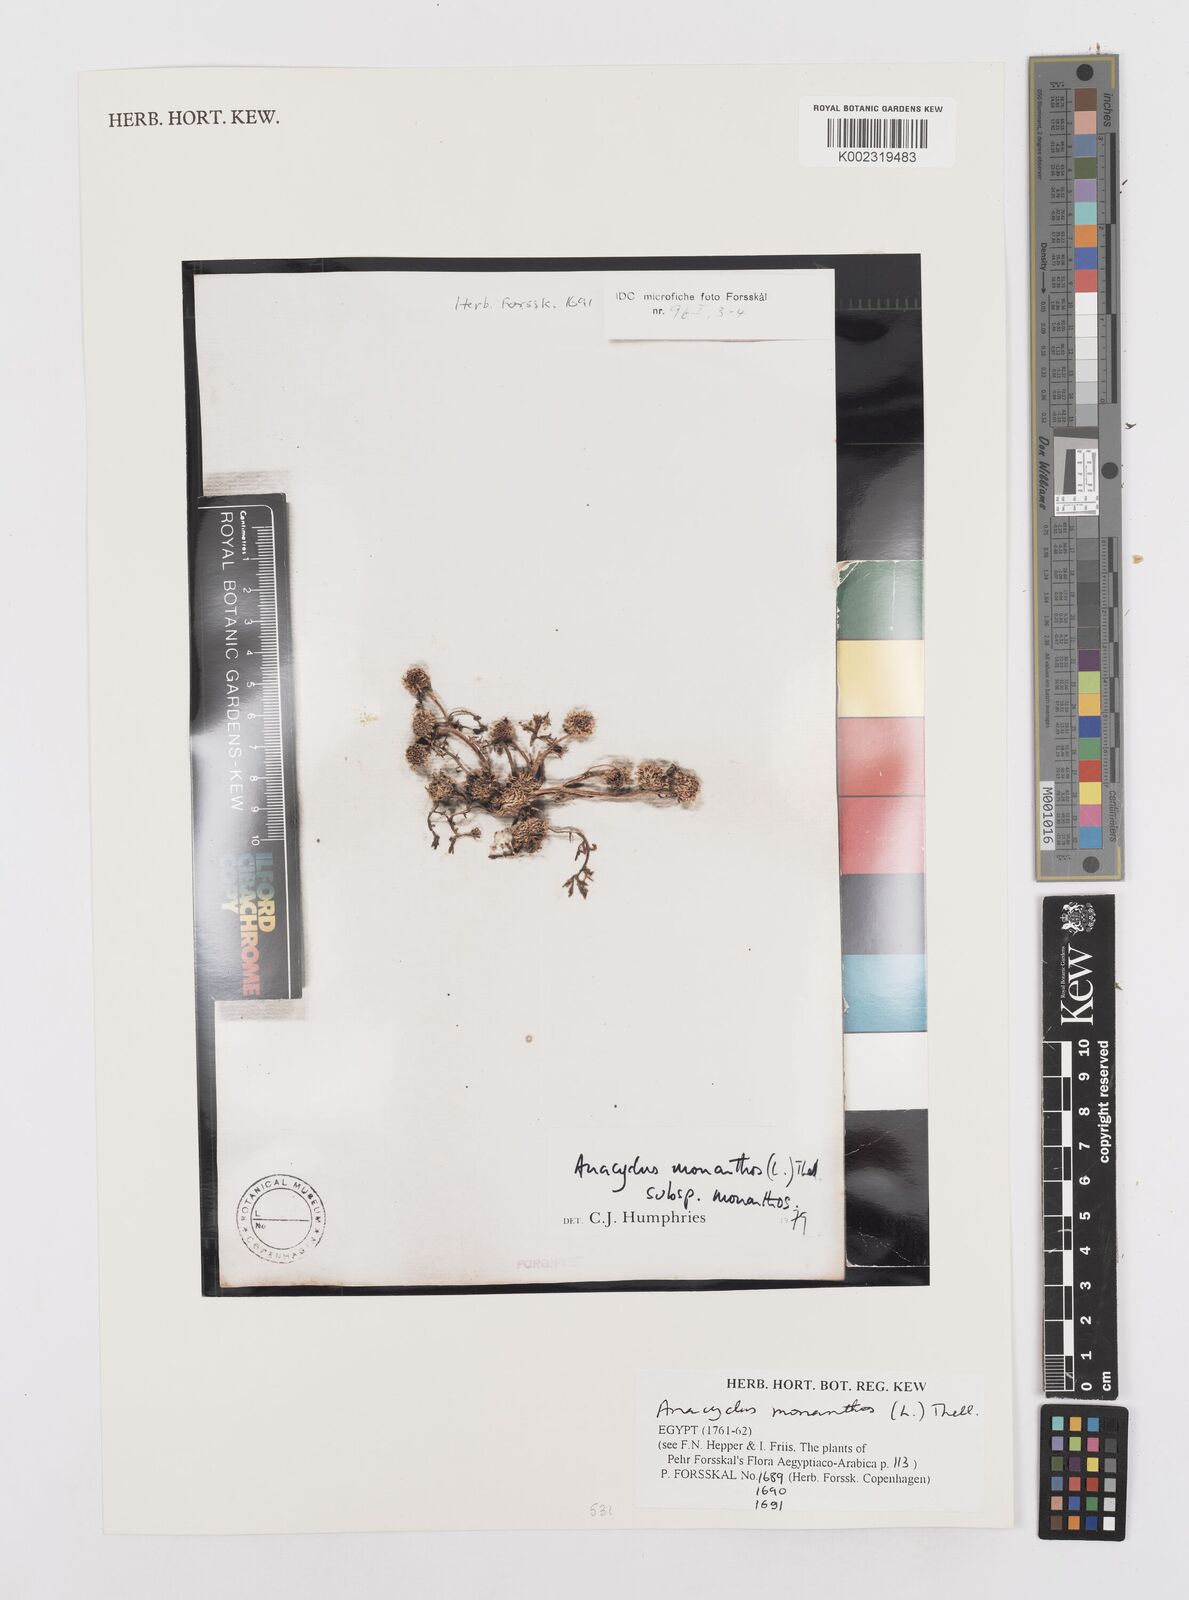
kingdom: Plantae
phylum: Tracheophyta
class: Magnoliopsida
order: Asterales
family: Asteraceae
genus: Anacyclus
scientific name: Anacyclus monanthos
